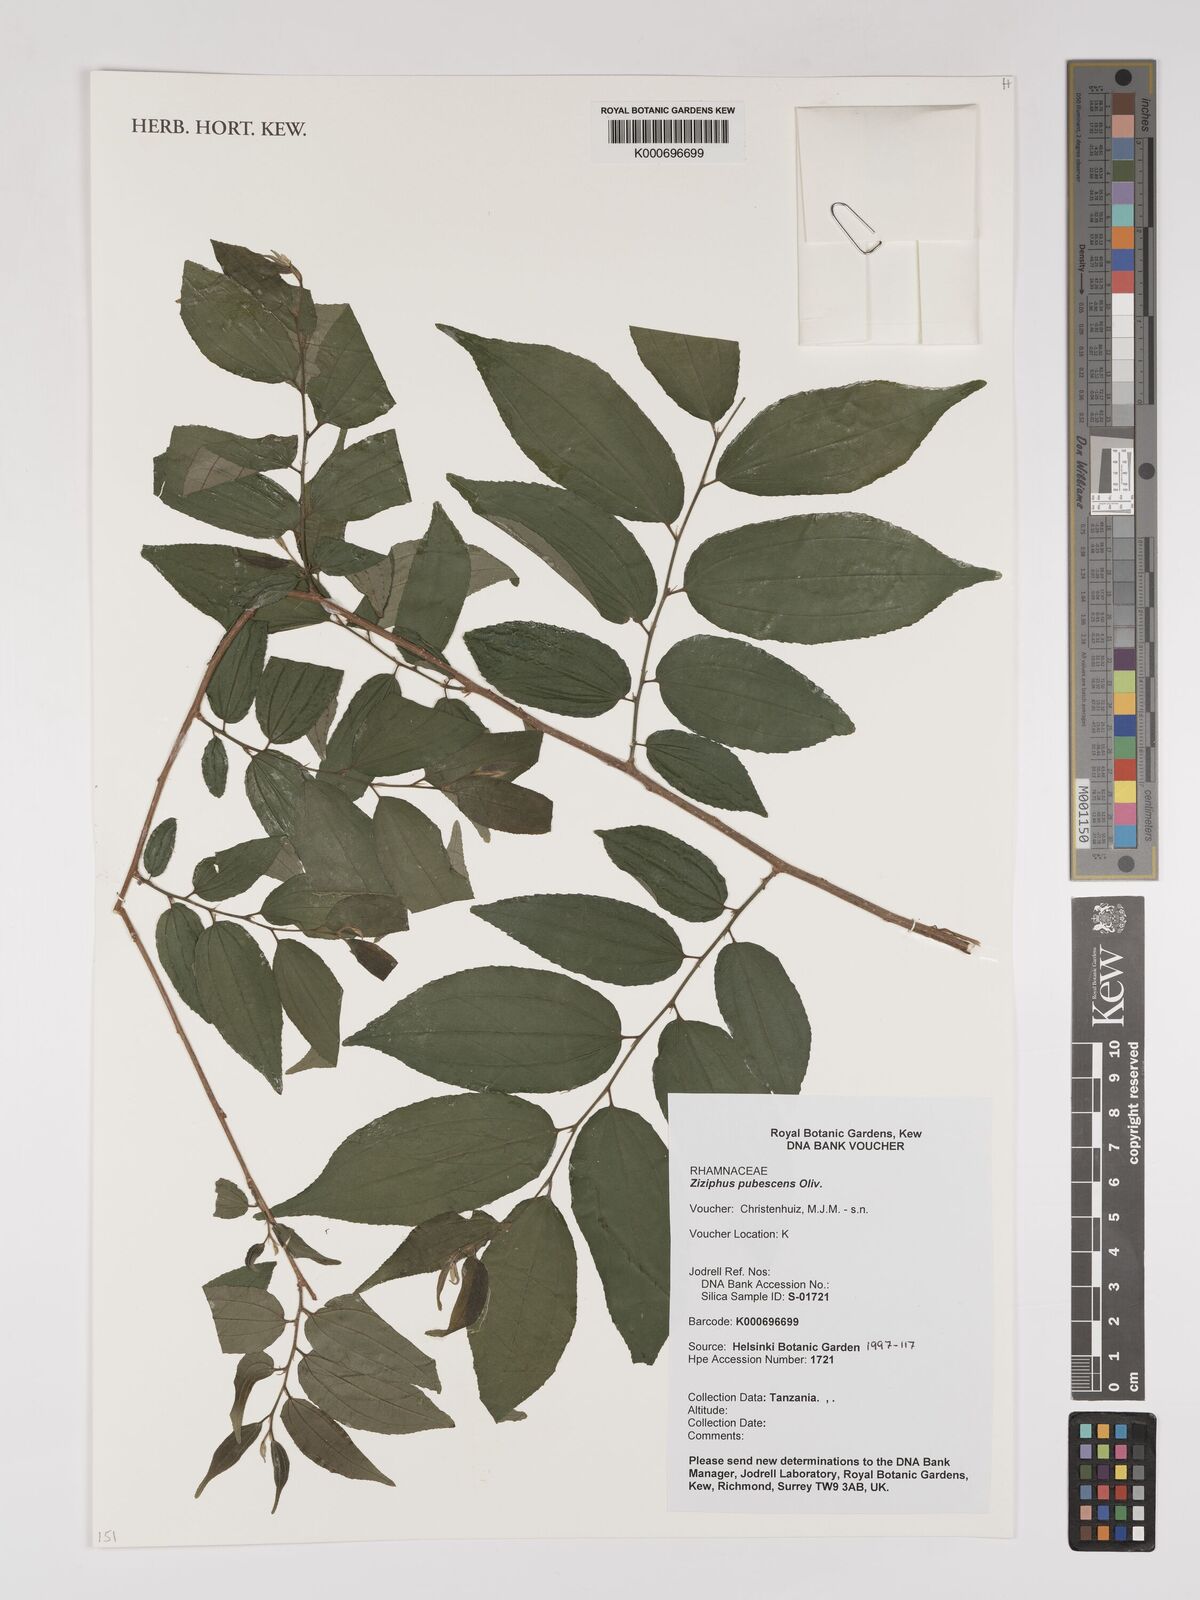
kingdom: Plantae
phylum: Tracheophyta
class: Magnoliopsida
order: Rosales
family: Rhamnaceae
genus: Ziziphus
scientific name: Ziziphus pubescens
